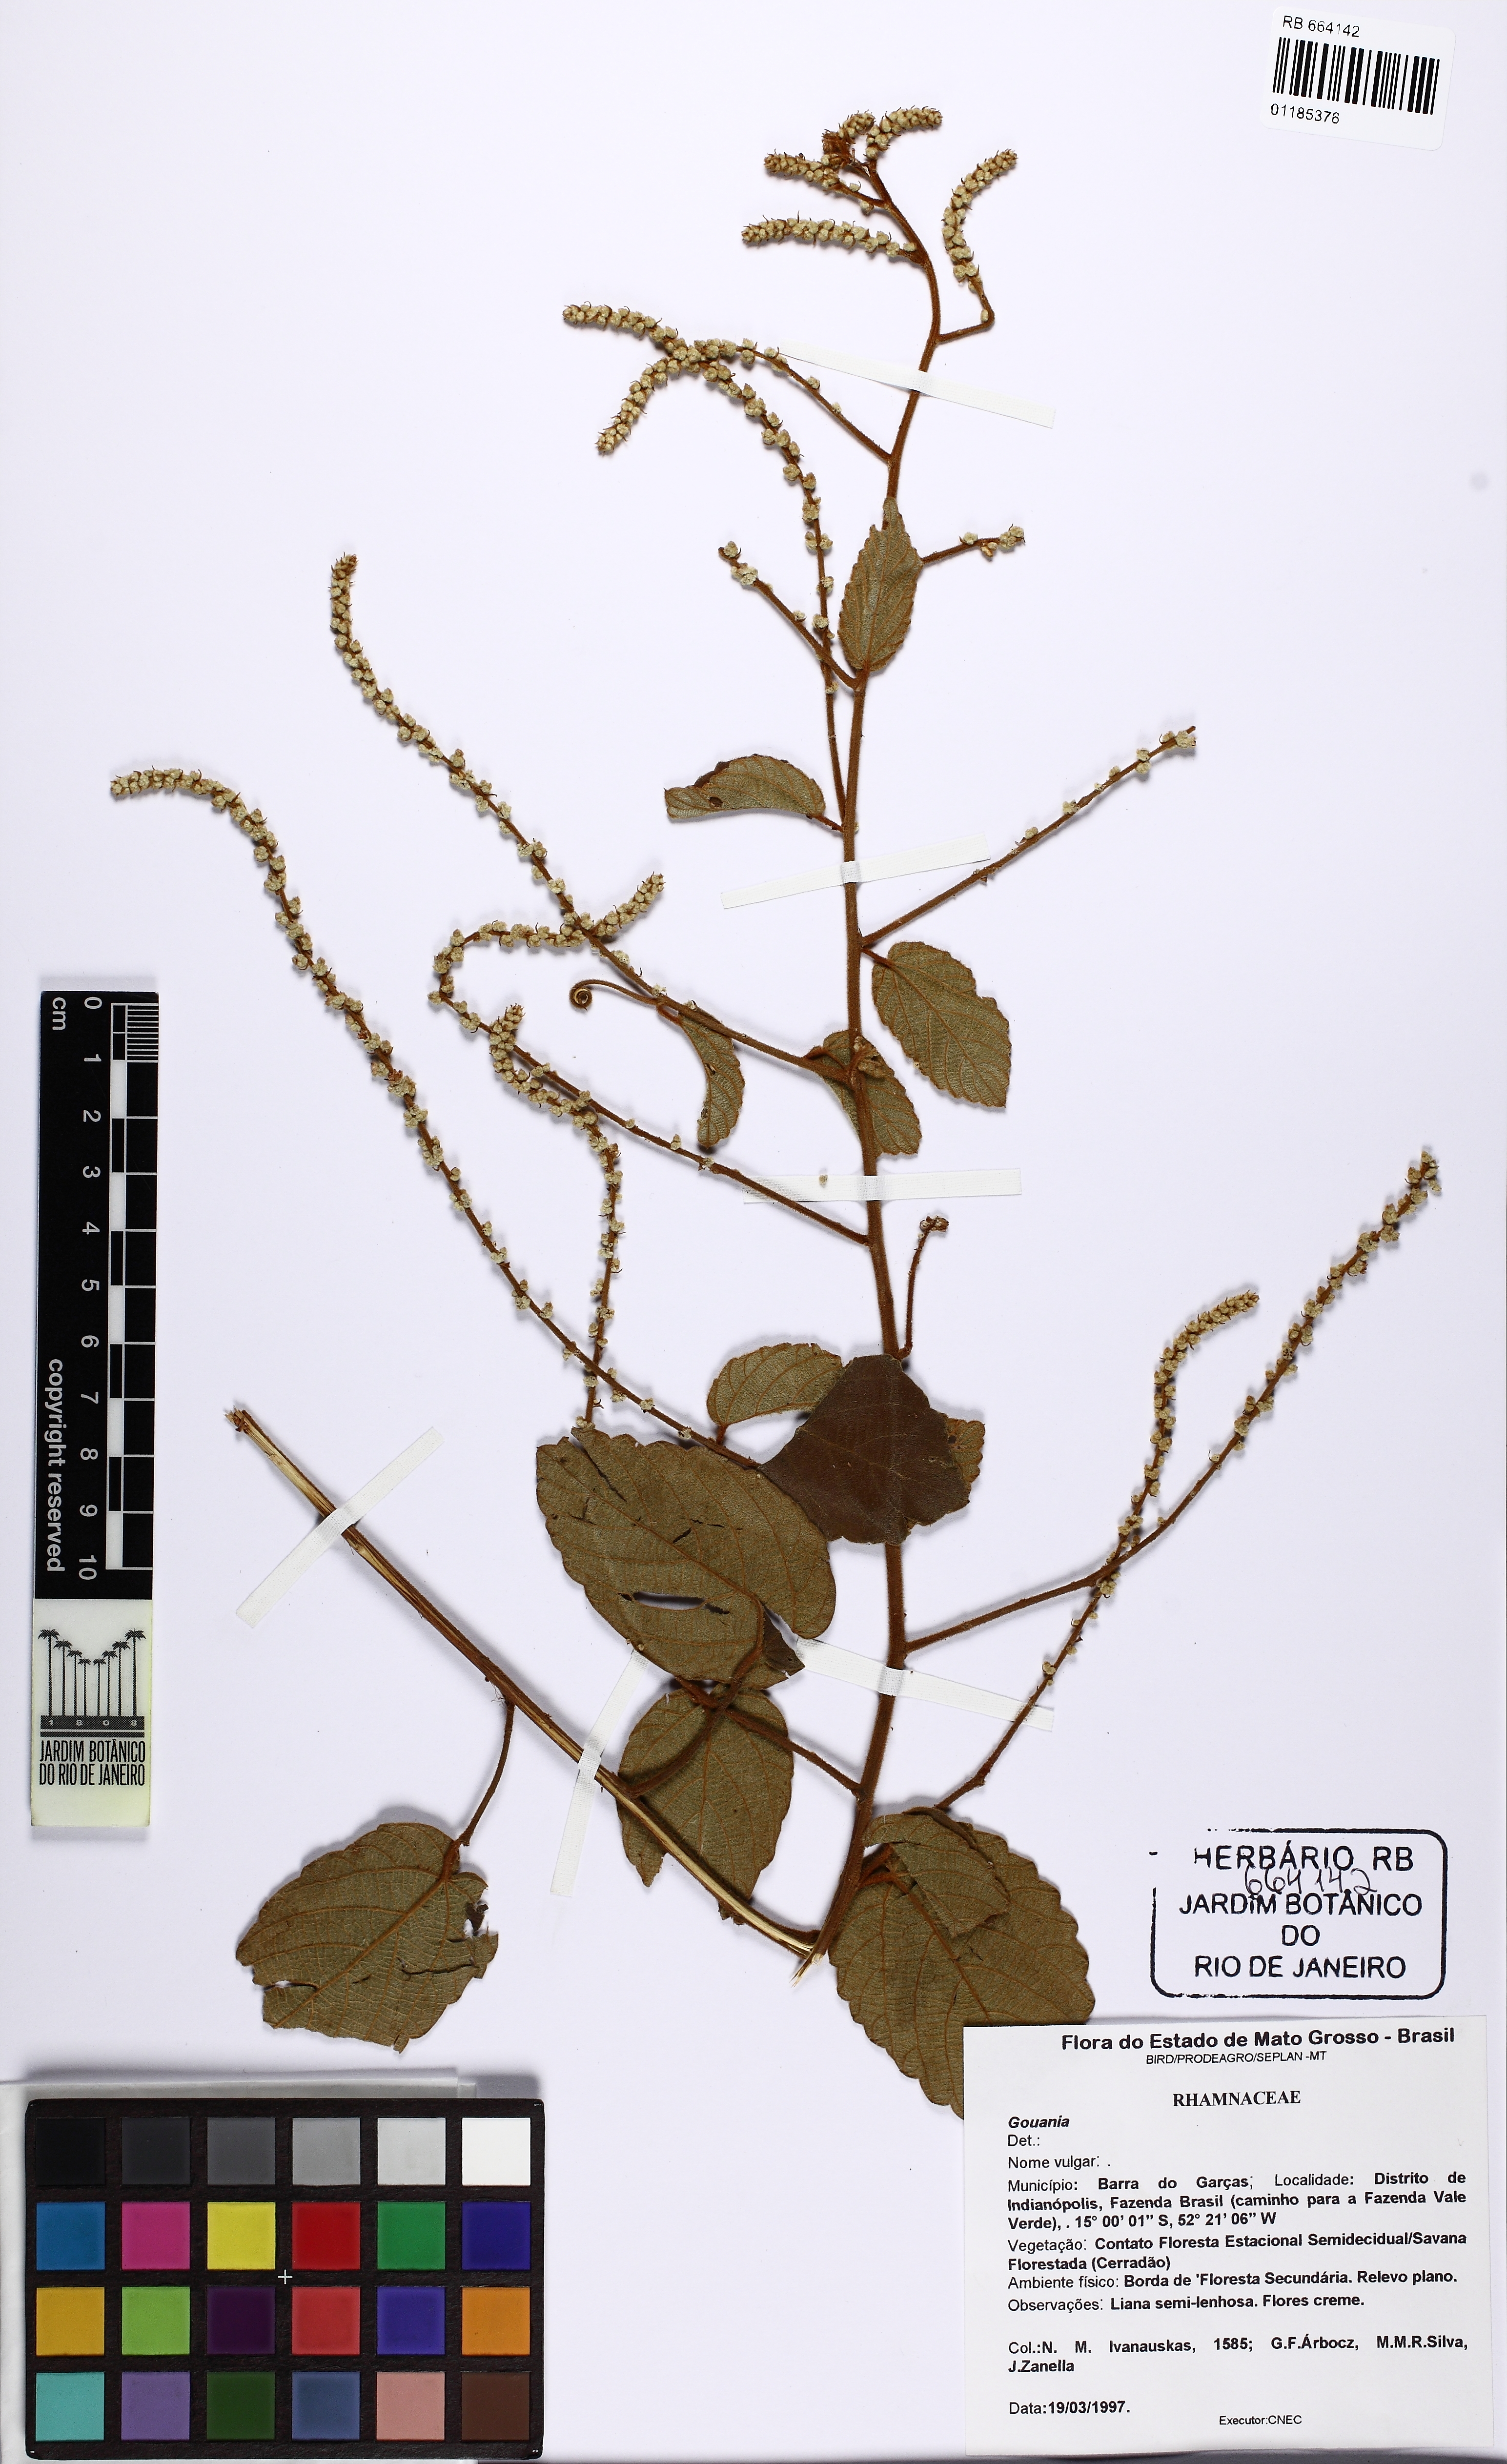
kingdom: Plantae
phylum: Tracheophyta
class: Magnoliopsida
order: Rosales
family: Rhamnaceae
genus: Gouania
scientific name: Gouania
